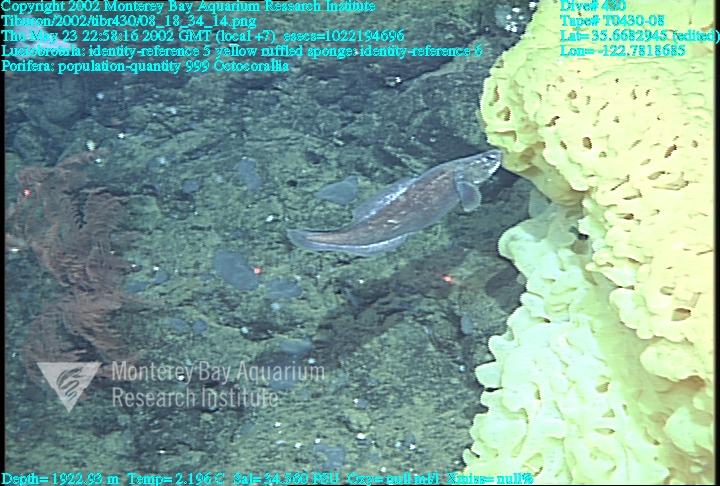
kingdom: Animalia
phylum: Porifera
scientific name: Porifera
